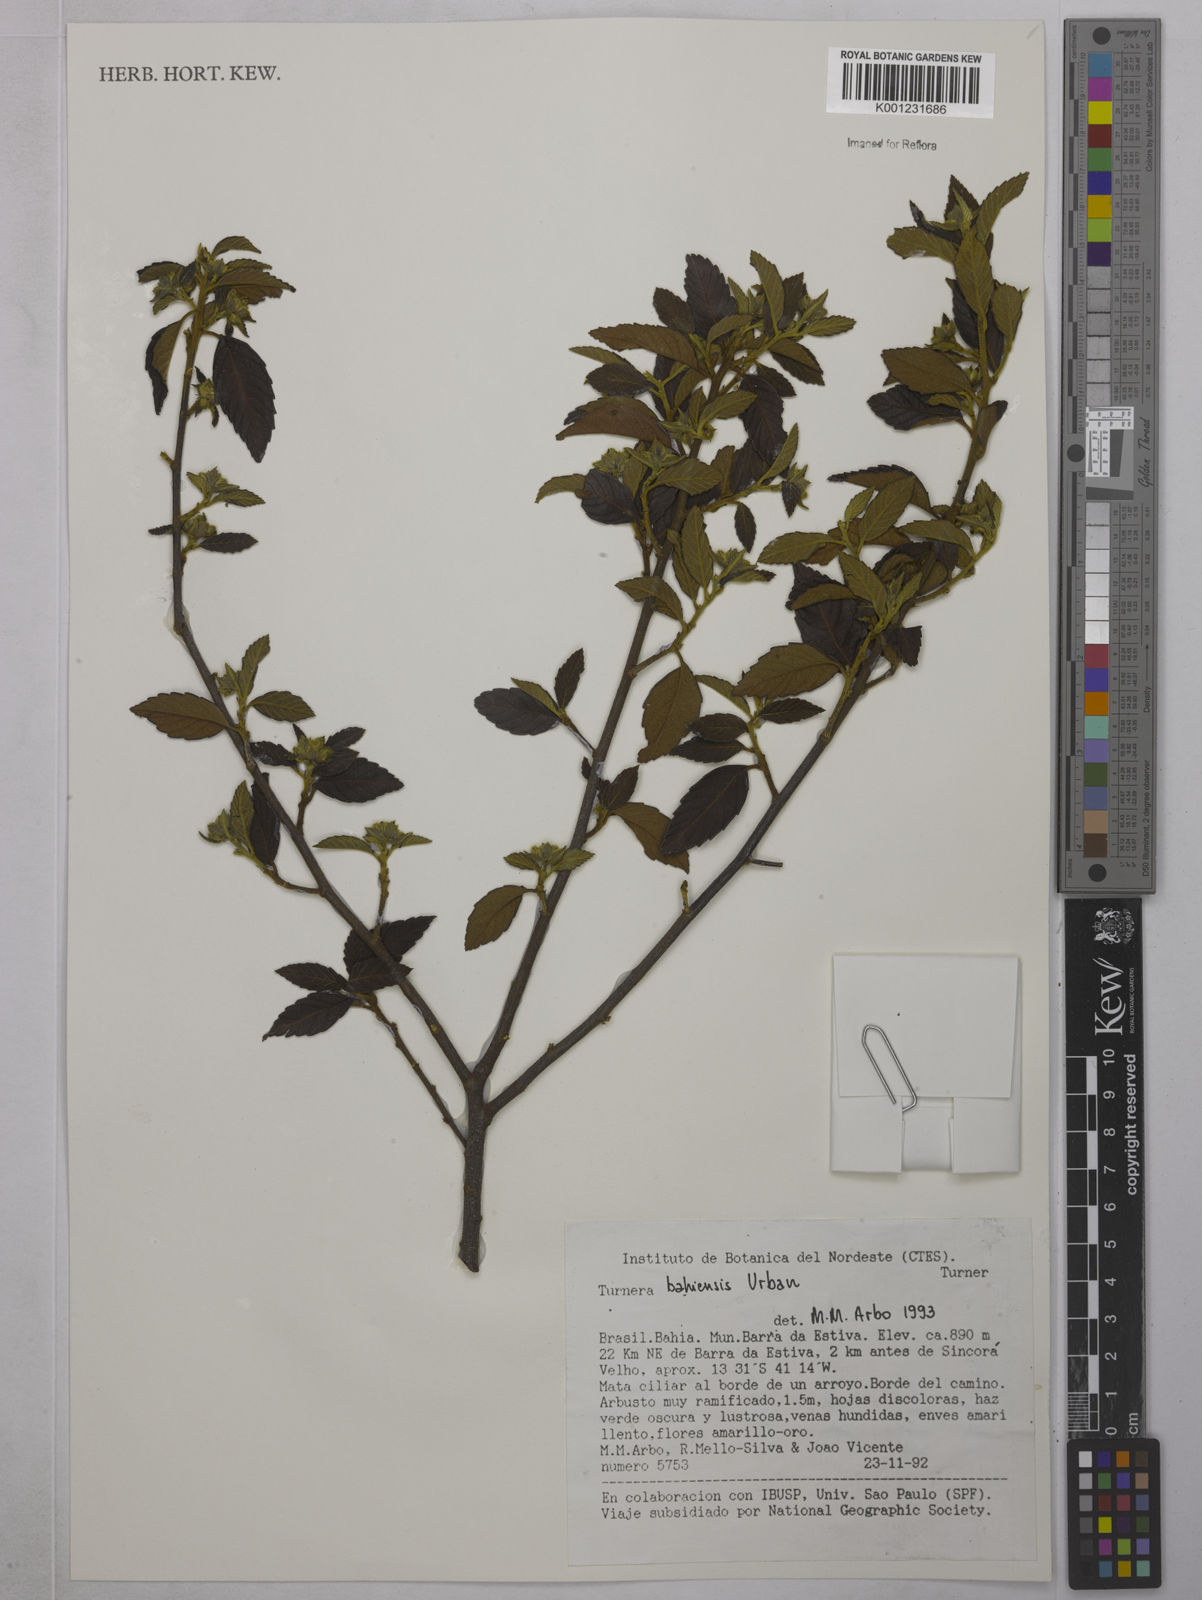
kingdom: Plantae
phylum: Tracheophyta
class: Magnoliopsida
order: Malpighiales
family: Turneraceae
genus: Turnera
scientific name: Turnera bahiensis
